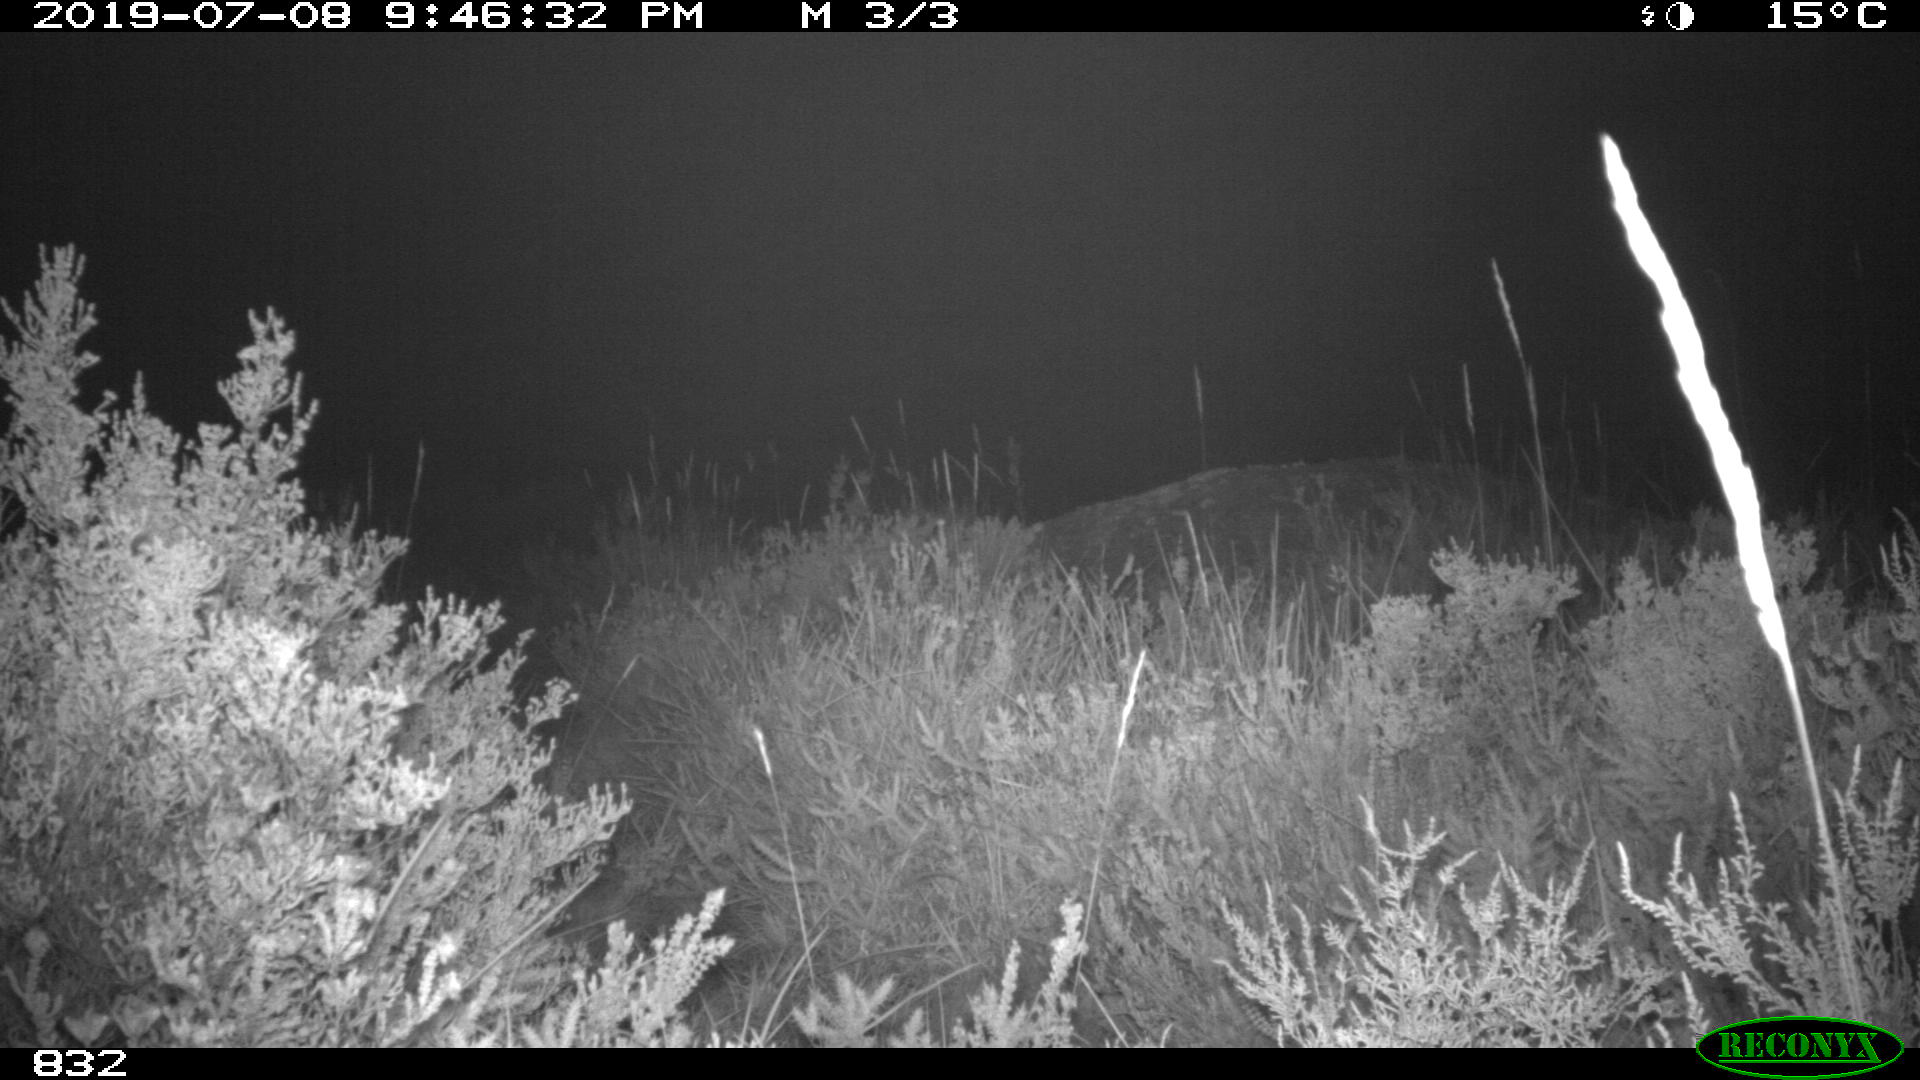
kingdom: Animalia
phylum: Chordata
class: Mammalia
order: Perissodactyla
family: Equidae
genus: Equus
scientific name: Equus caballus
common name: Horse
